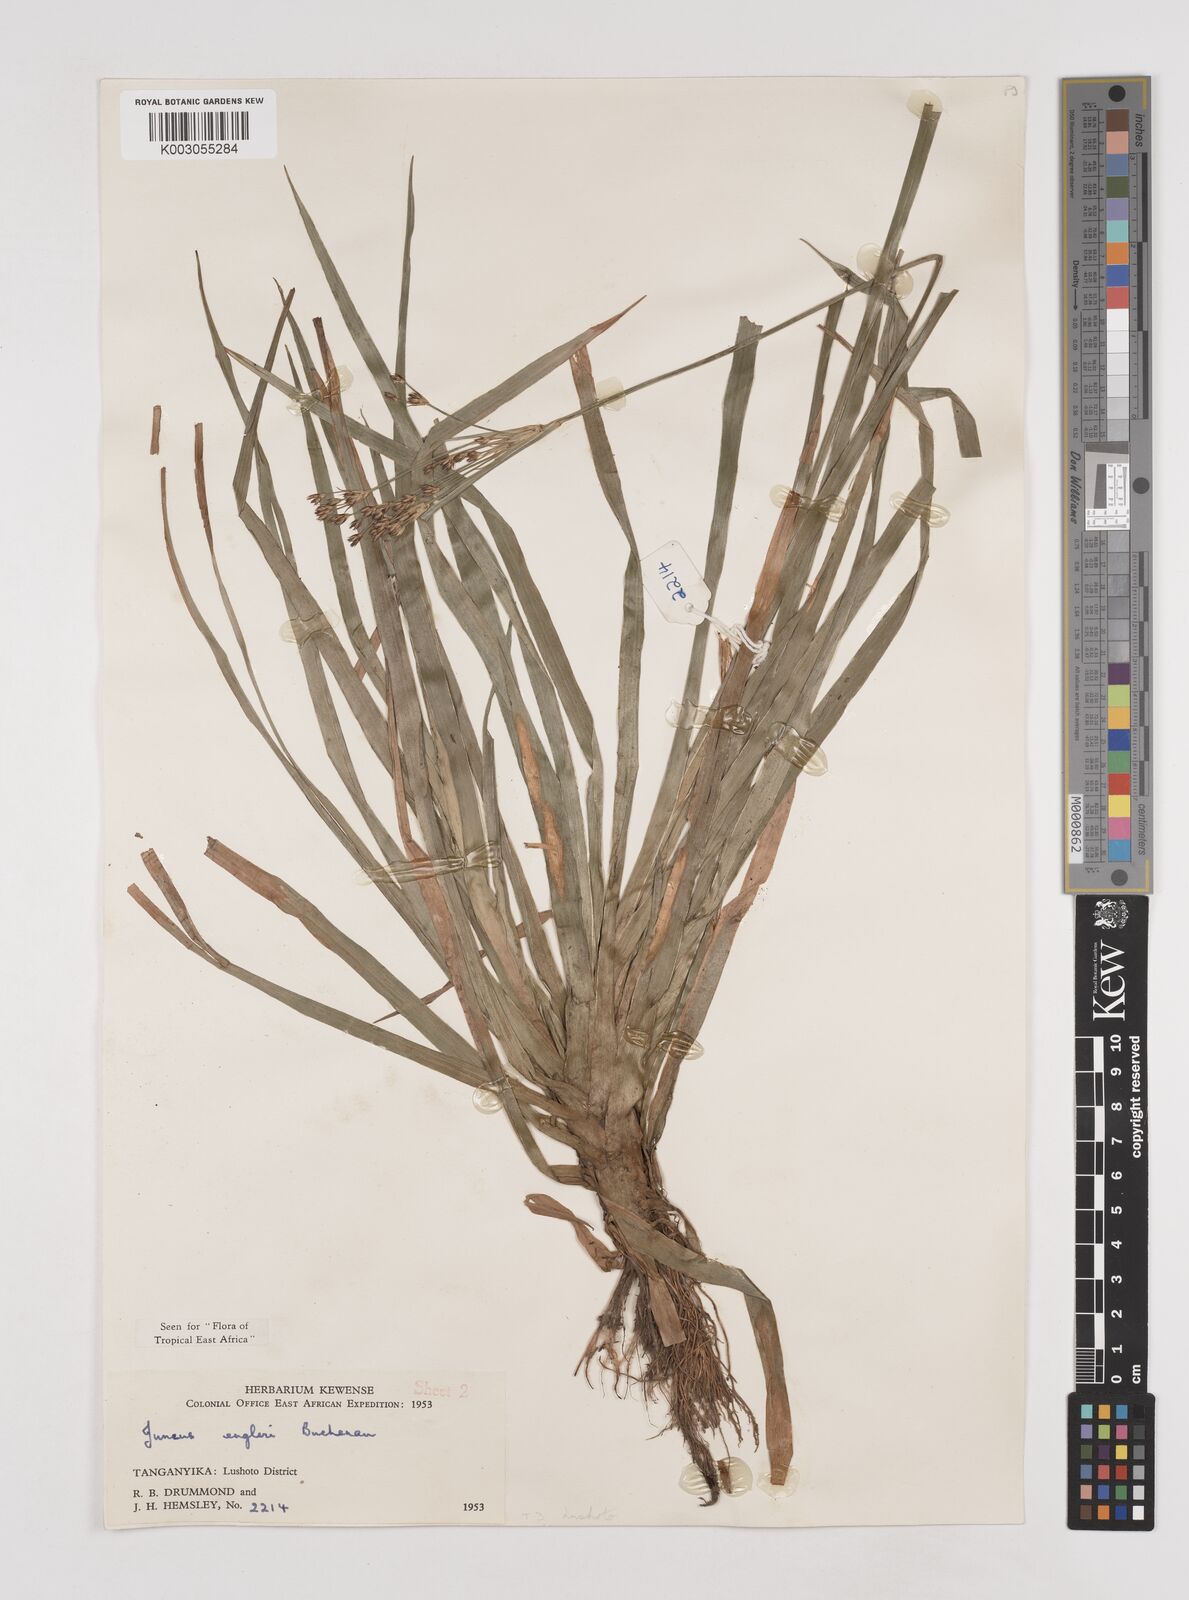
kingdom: Plantae
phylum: Tracheophyta
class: Liliopsida
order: Poales
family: Juncaceae
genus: Juncus
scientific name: Juncus engleri
